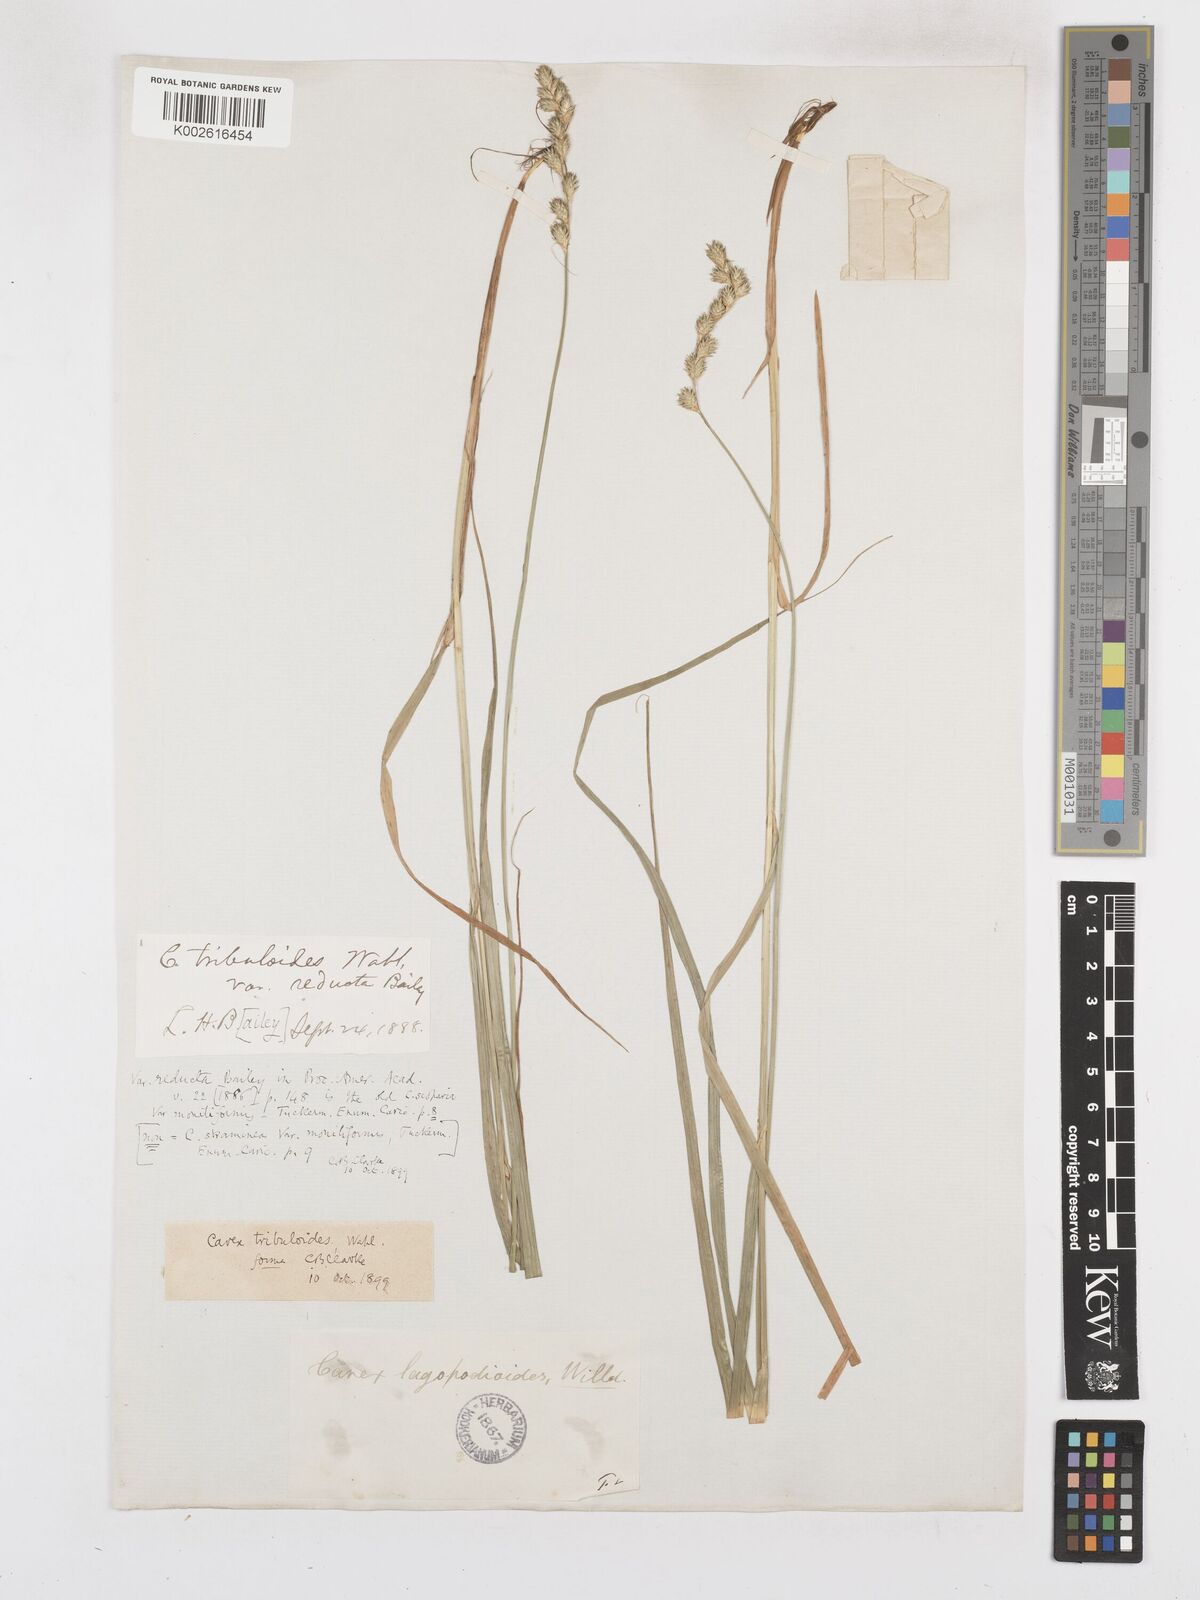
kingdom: Plantae
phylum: Tracheophyta
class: Liliopsida
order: Poales
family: Cyperaceae
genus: Carex
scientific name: Carex tribuloides
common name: Blunt broom sedge
